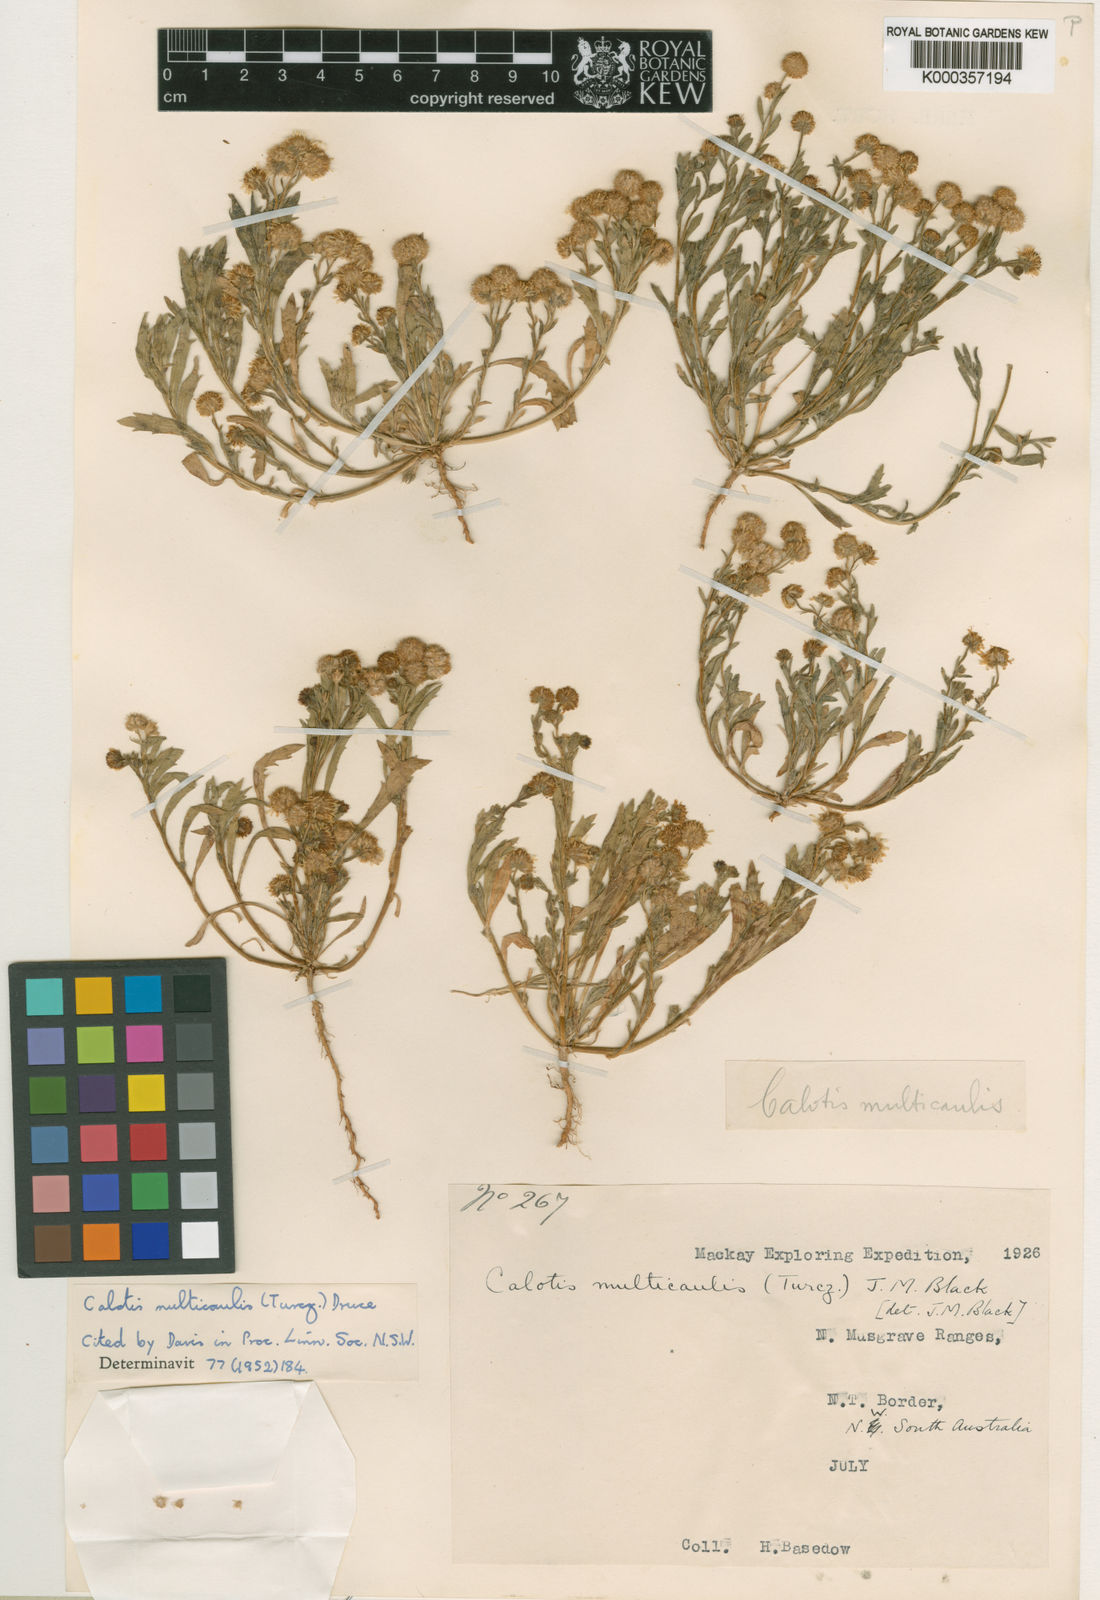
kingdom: Plantae
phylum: Tracheophyta
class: Magnoliopsida
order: Asterales
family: Asteraceae
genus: Calotis
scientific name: Calotis multicaulis
